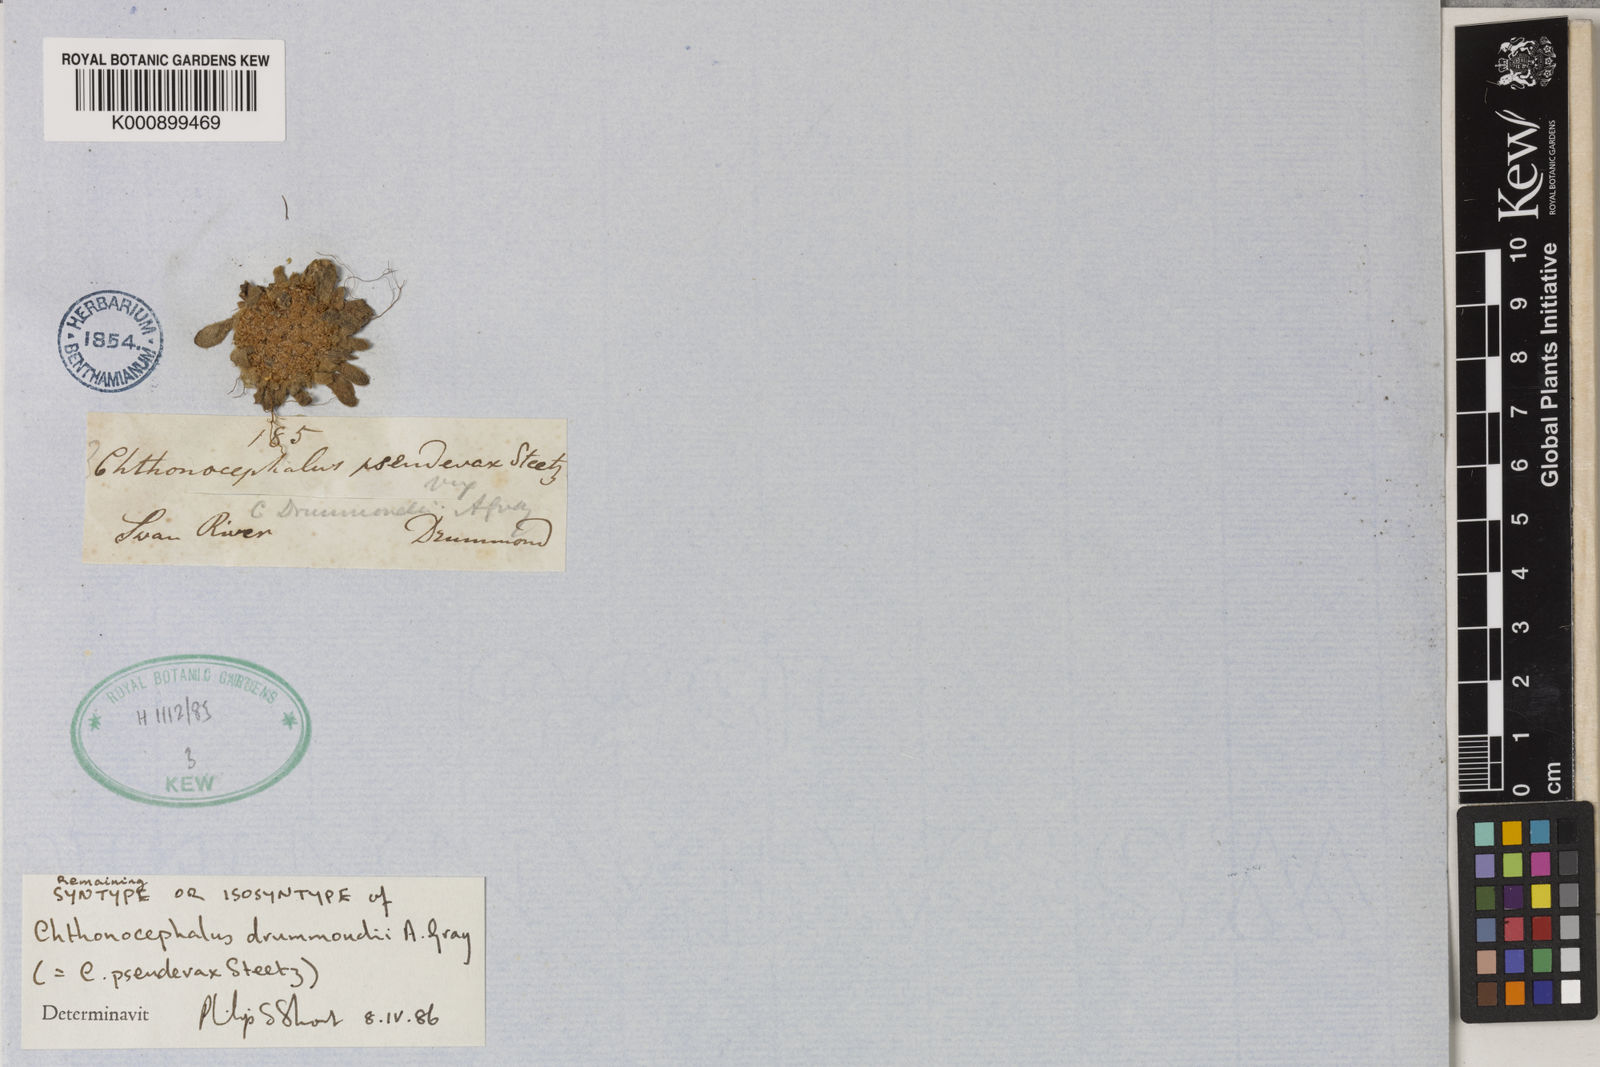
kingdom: Plantae
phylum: Tracheophyta
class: Magnoliopsida
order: Asterales
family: Asteraceae
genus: Chthonocephalus
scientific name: Chthonocephalus pseudevax
